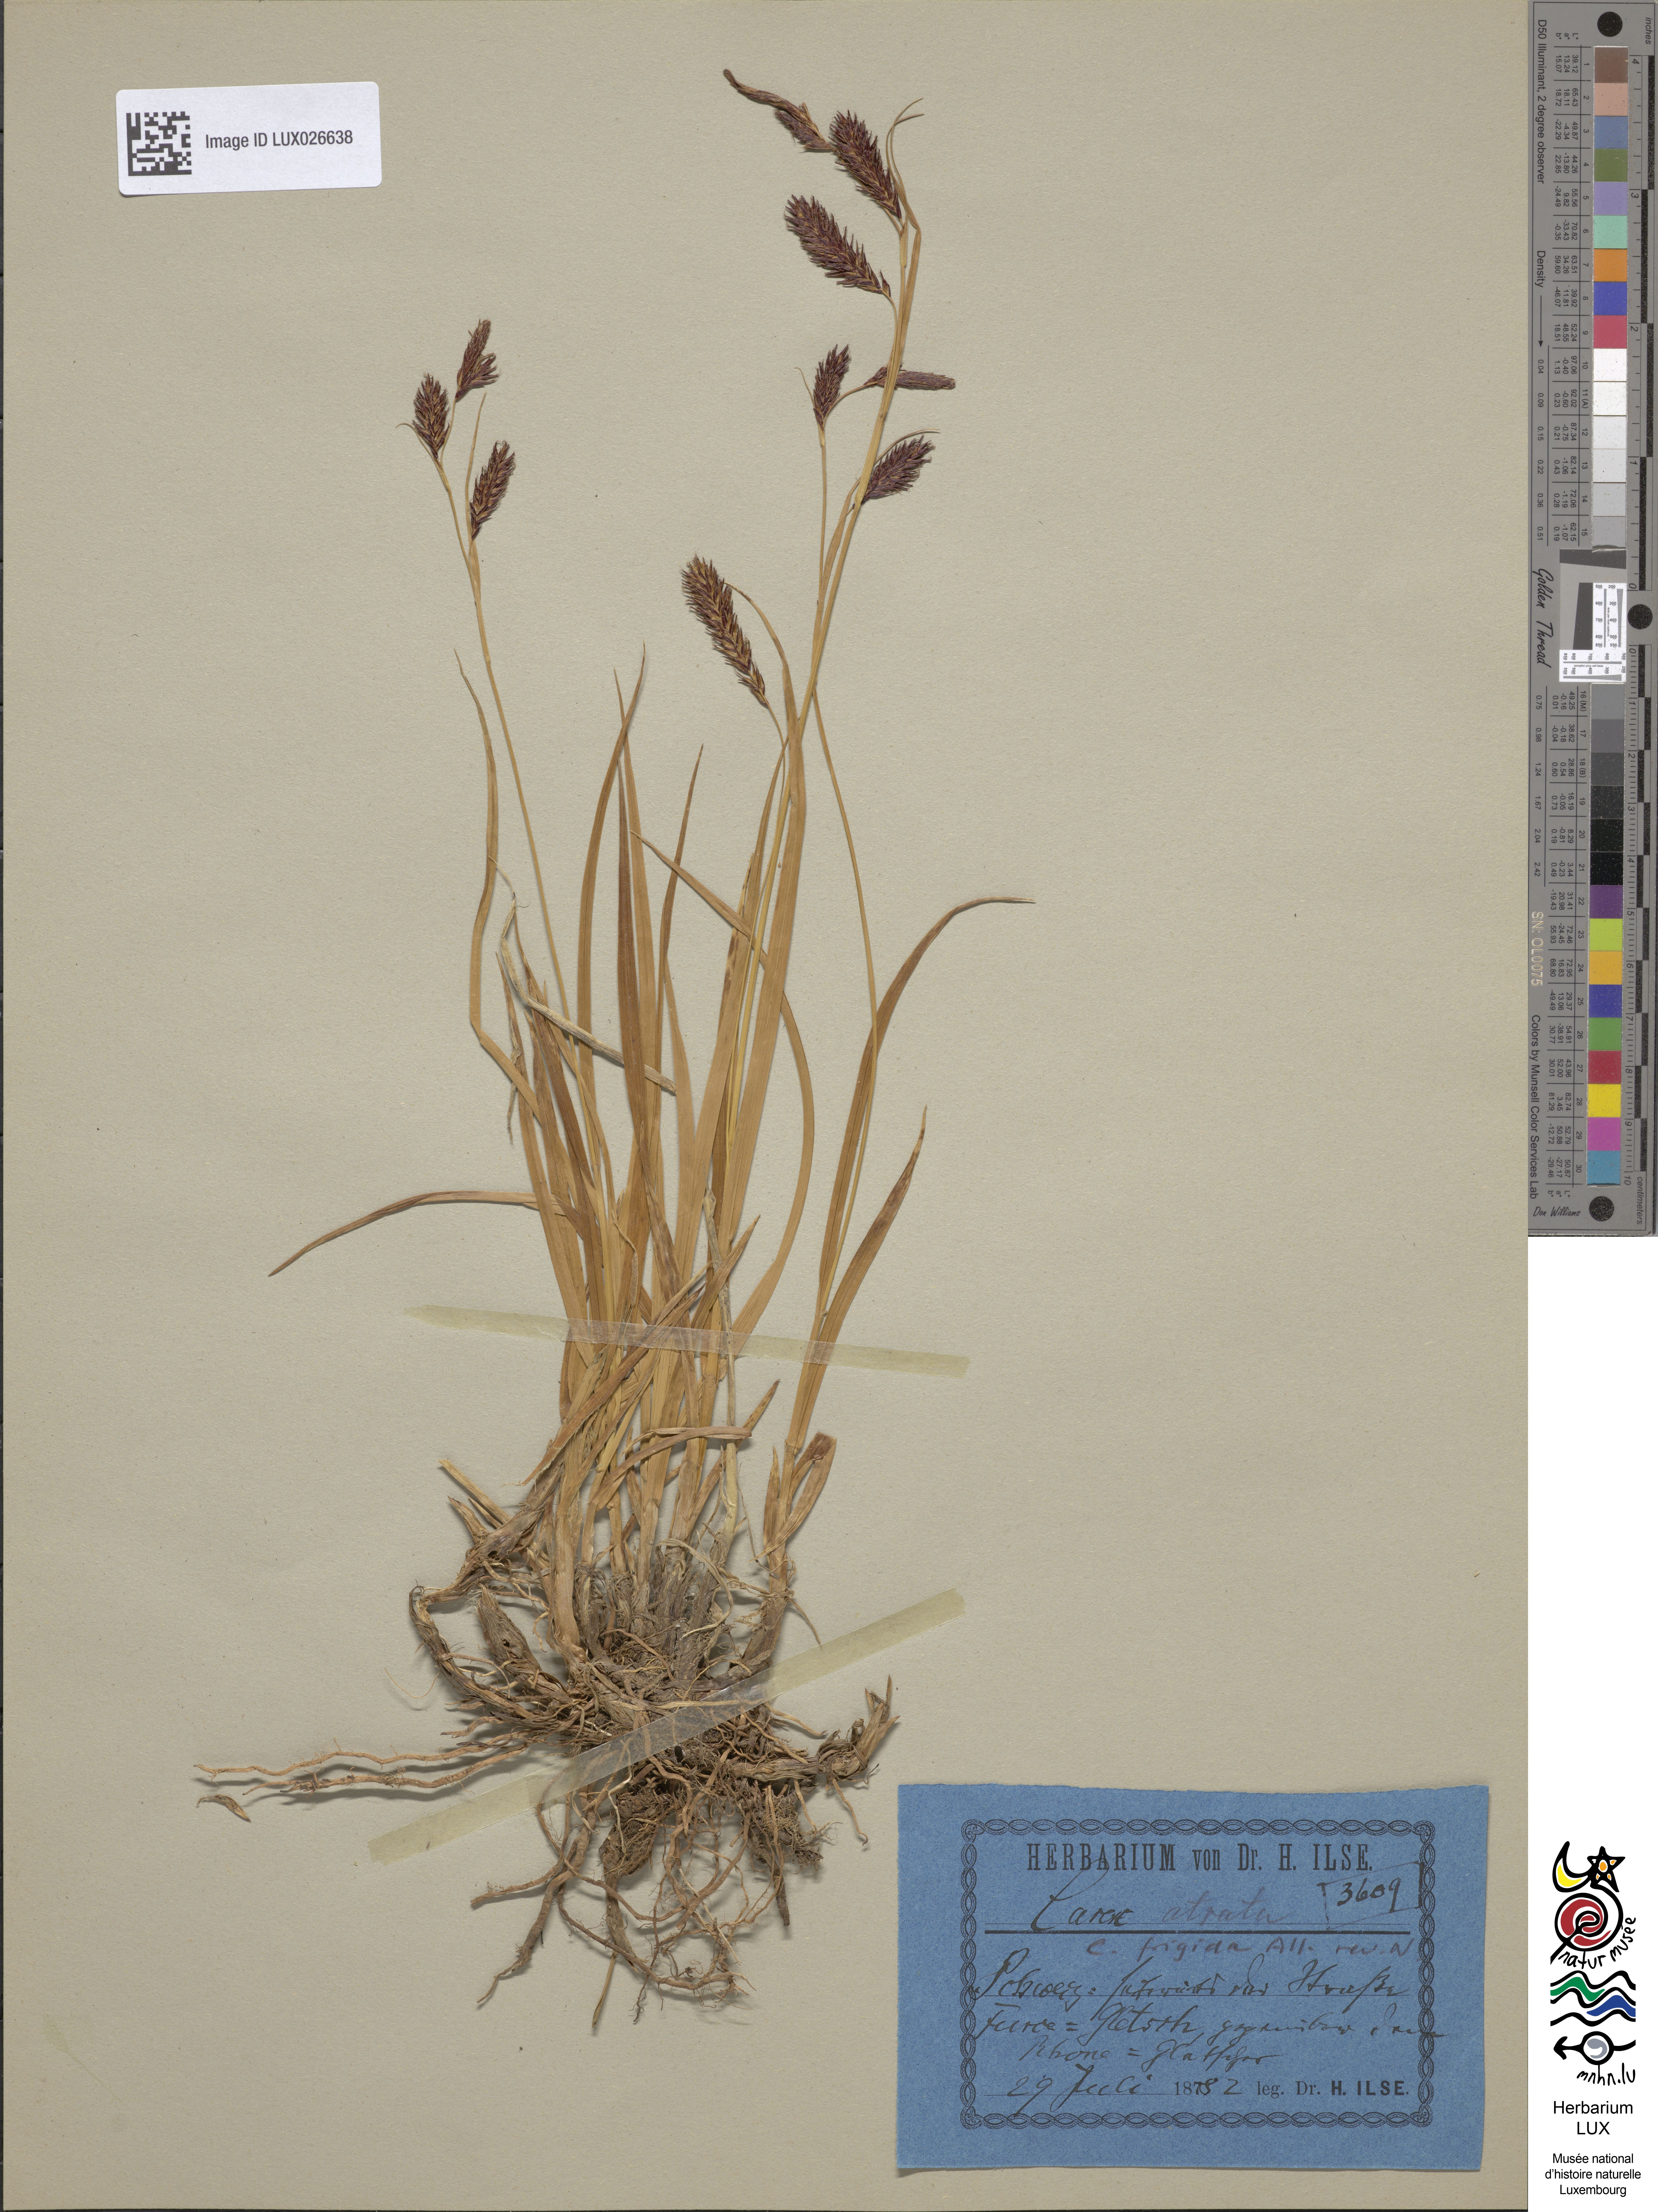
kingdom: Plantae
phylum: Tracheophyta
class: Liliopsida
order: Poales
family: Cyperaceae
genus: Carex
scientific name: Carex frigida
